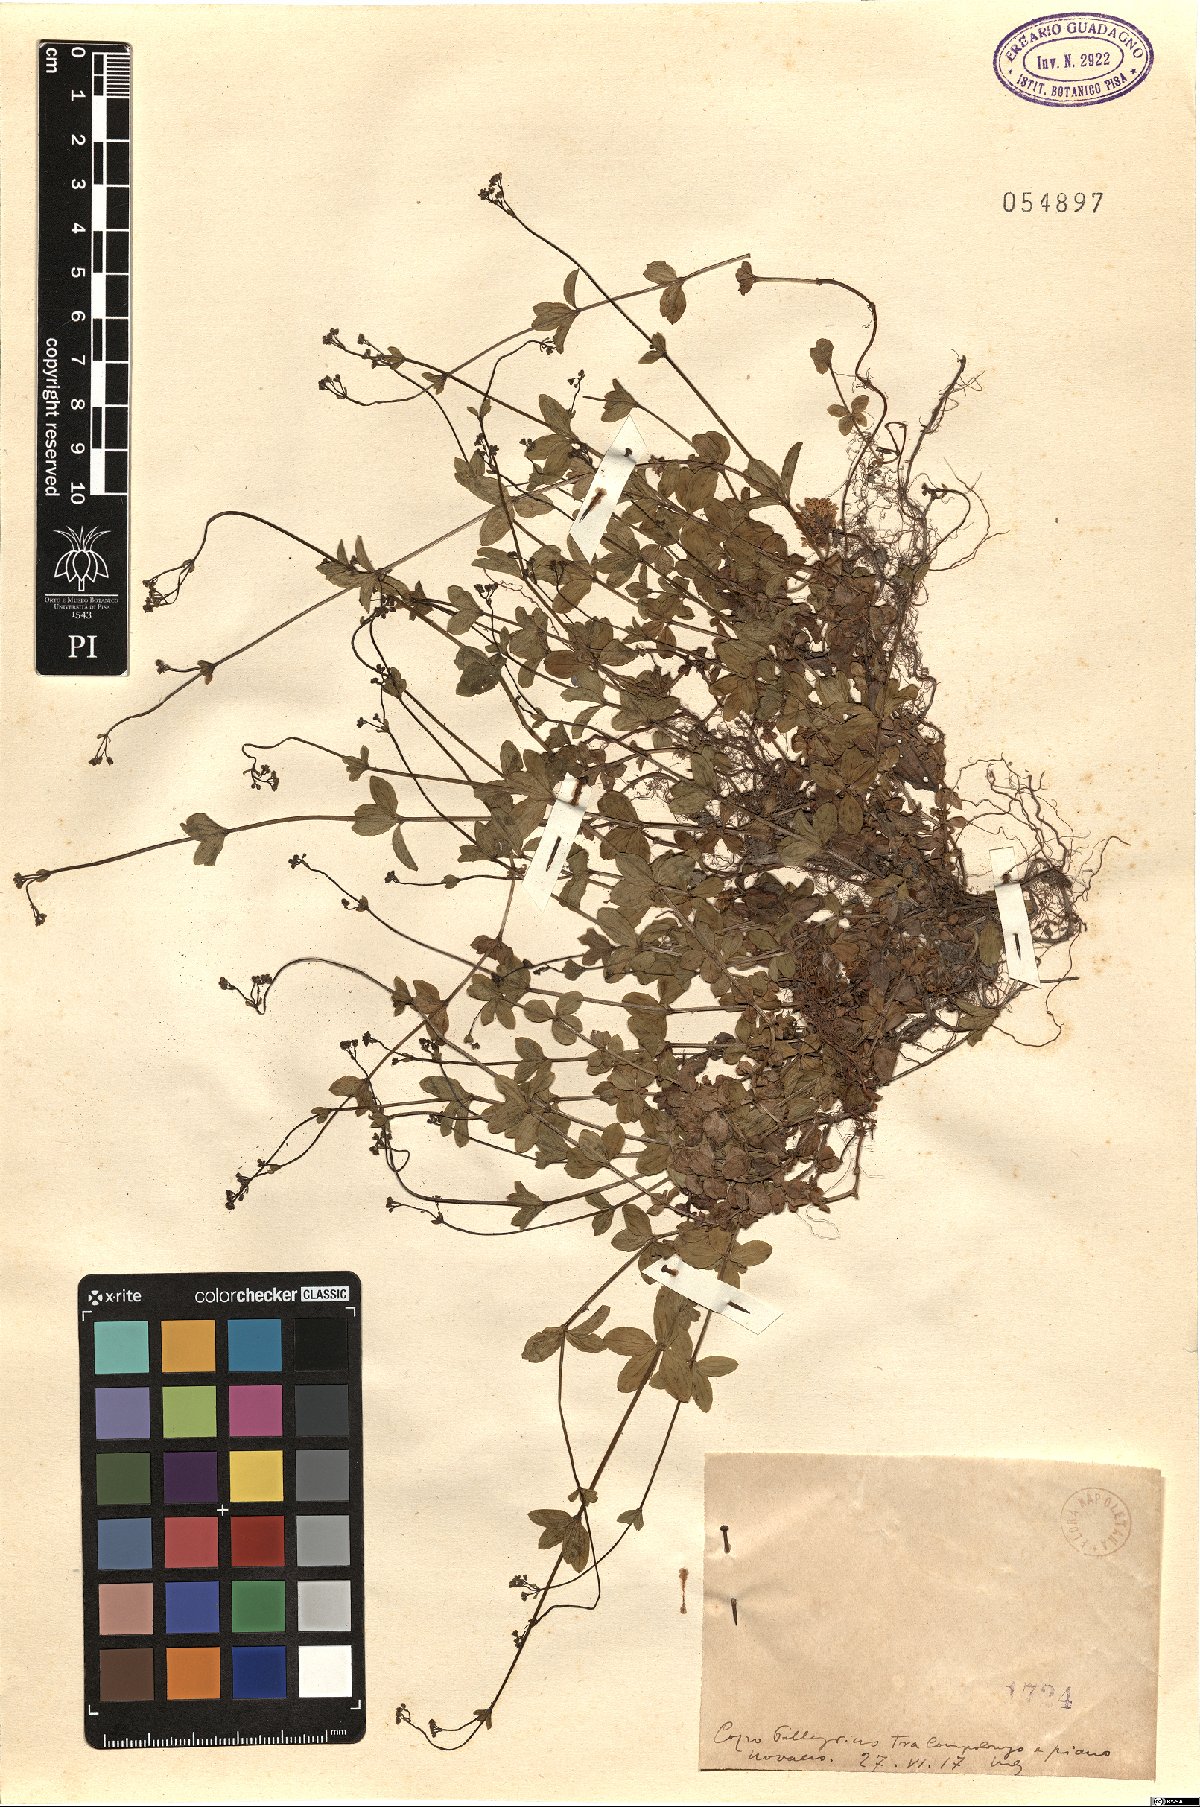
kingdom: Plantae
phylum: Tracheophyta
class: Magnoliopsida
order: Gentianales
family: Rubiaceae
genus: Asperula
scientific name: Asperula
